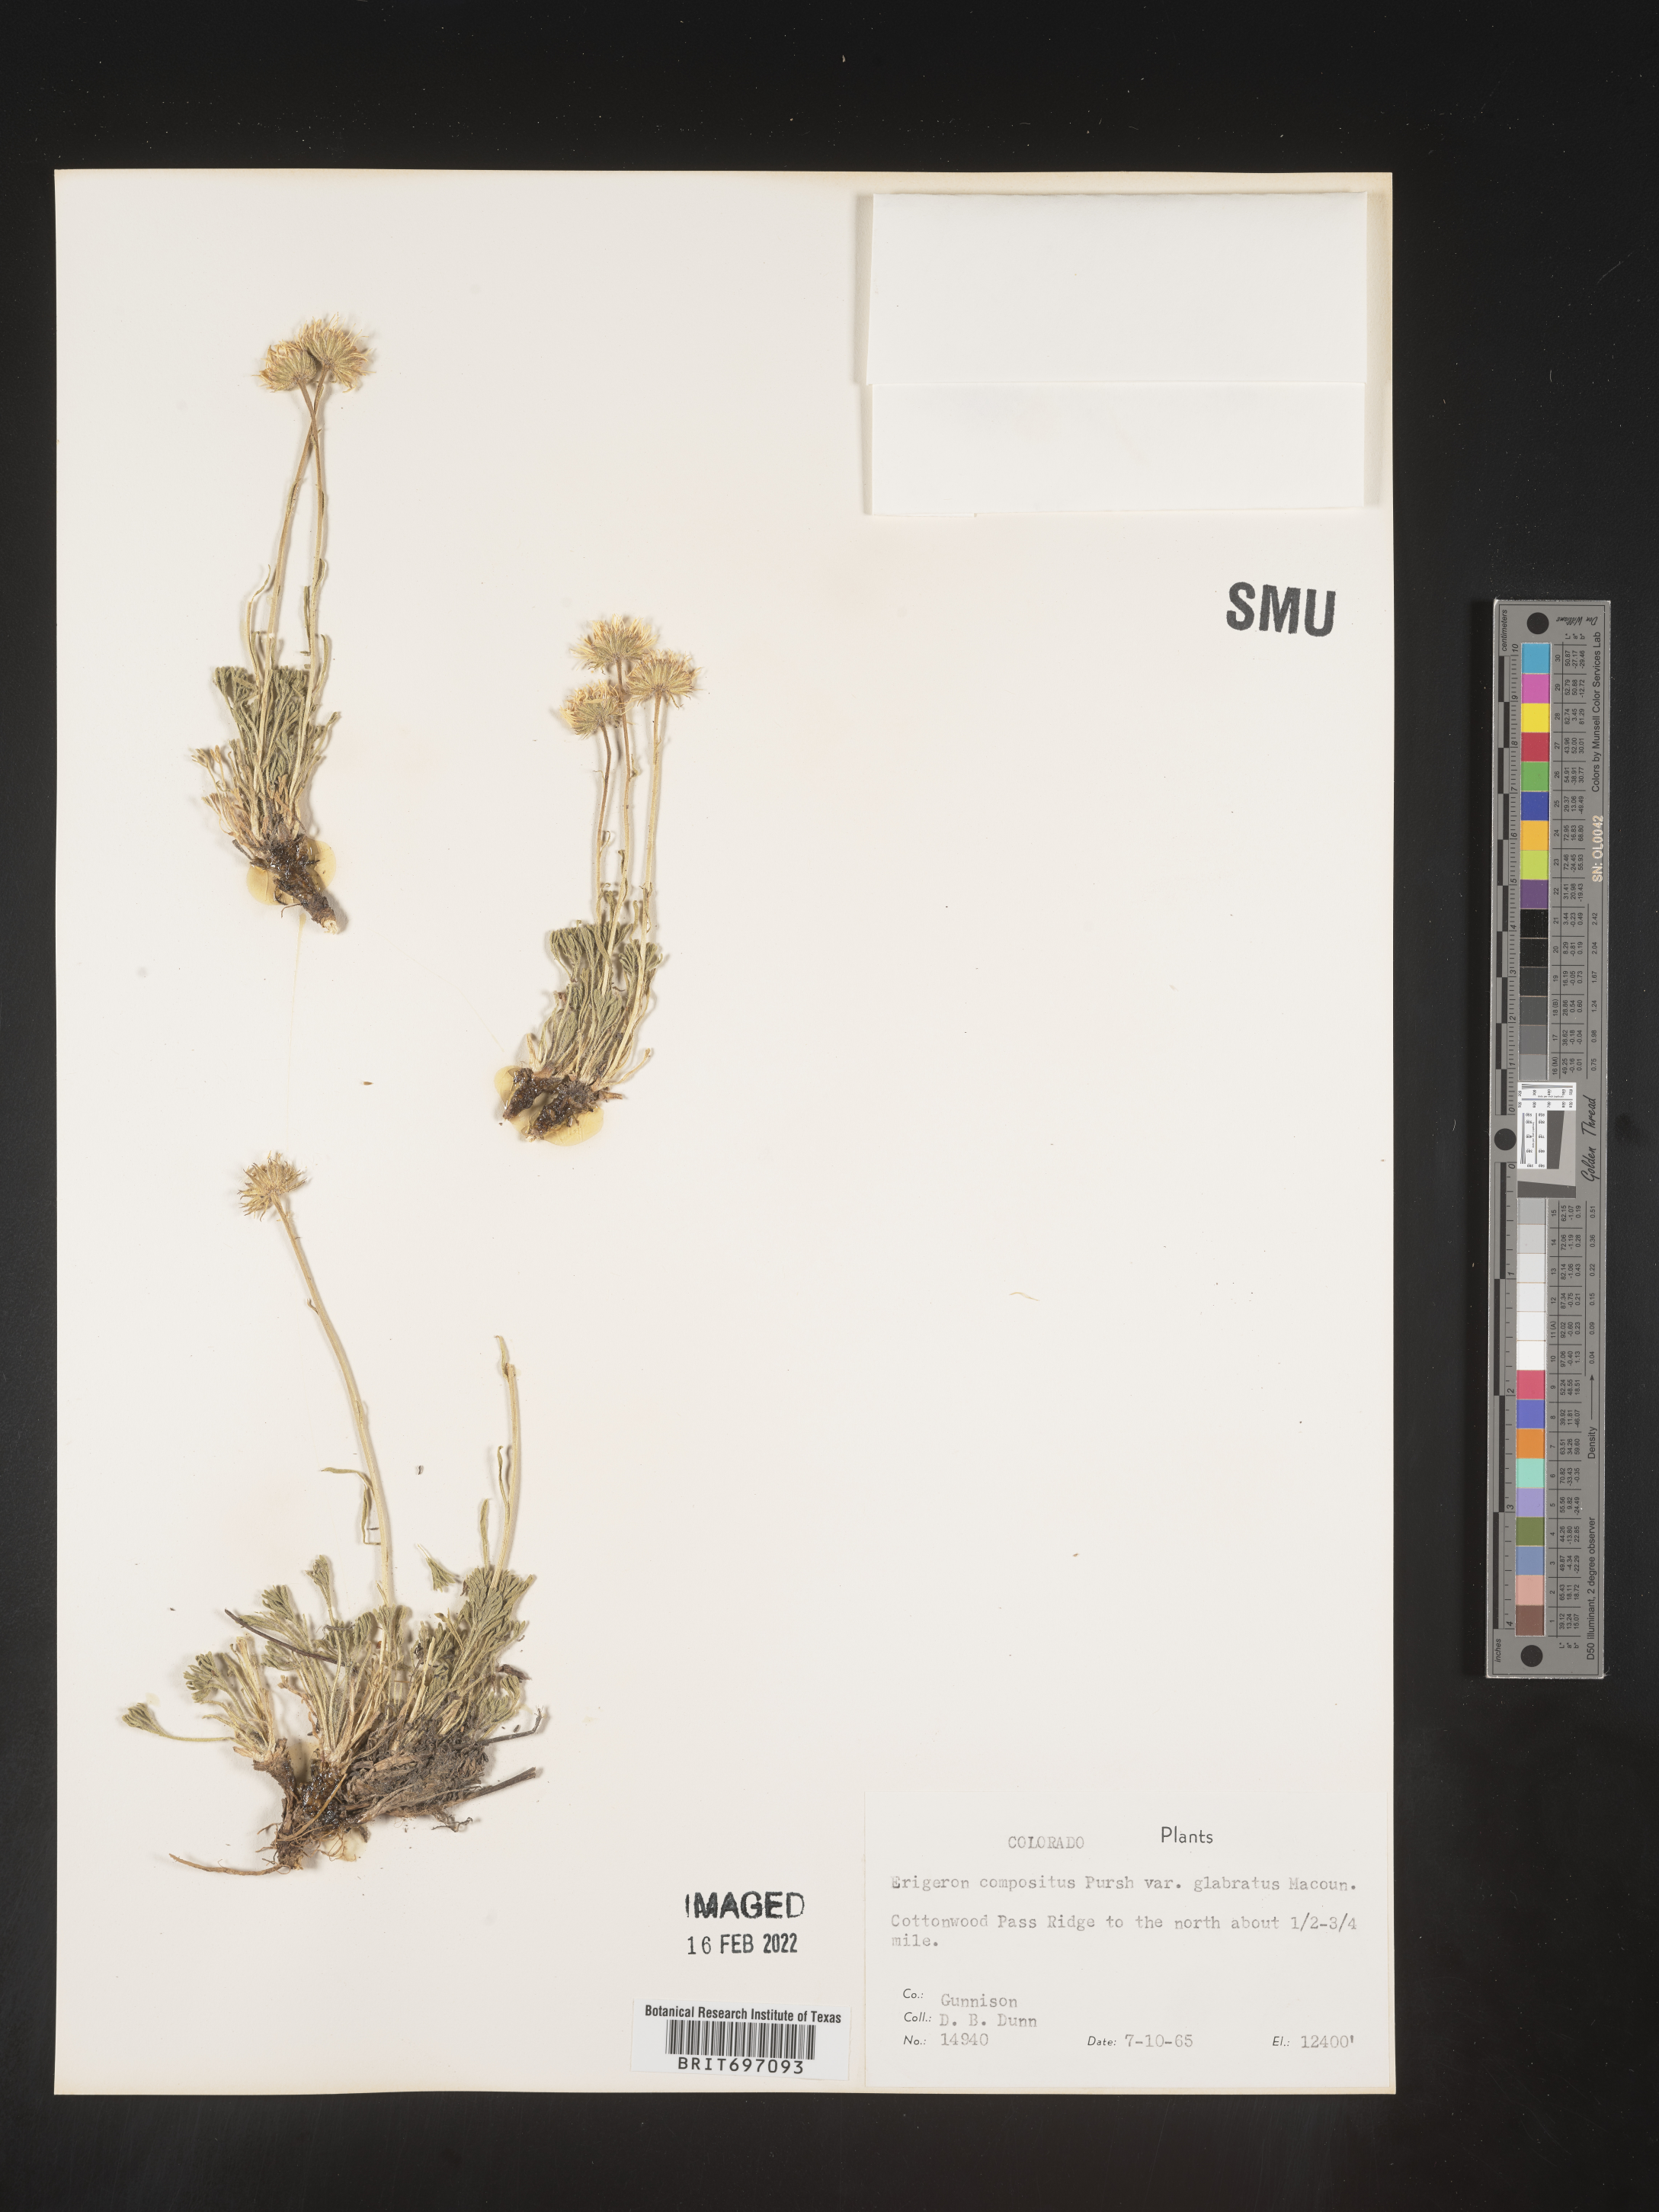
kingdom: Plantae
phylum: Tracheophyta
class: Magnoliopsida
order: Asterales
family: Asteraceae
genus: Erigeron
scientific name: Erigeron compositus
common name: Dwarf mountain fleabane
